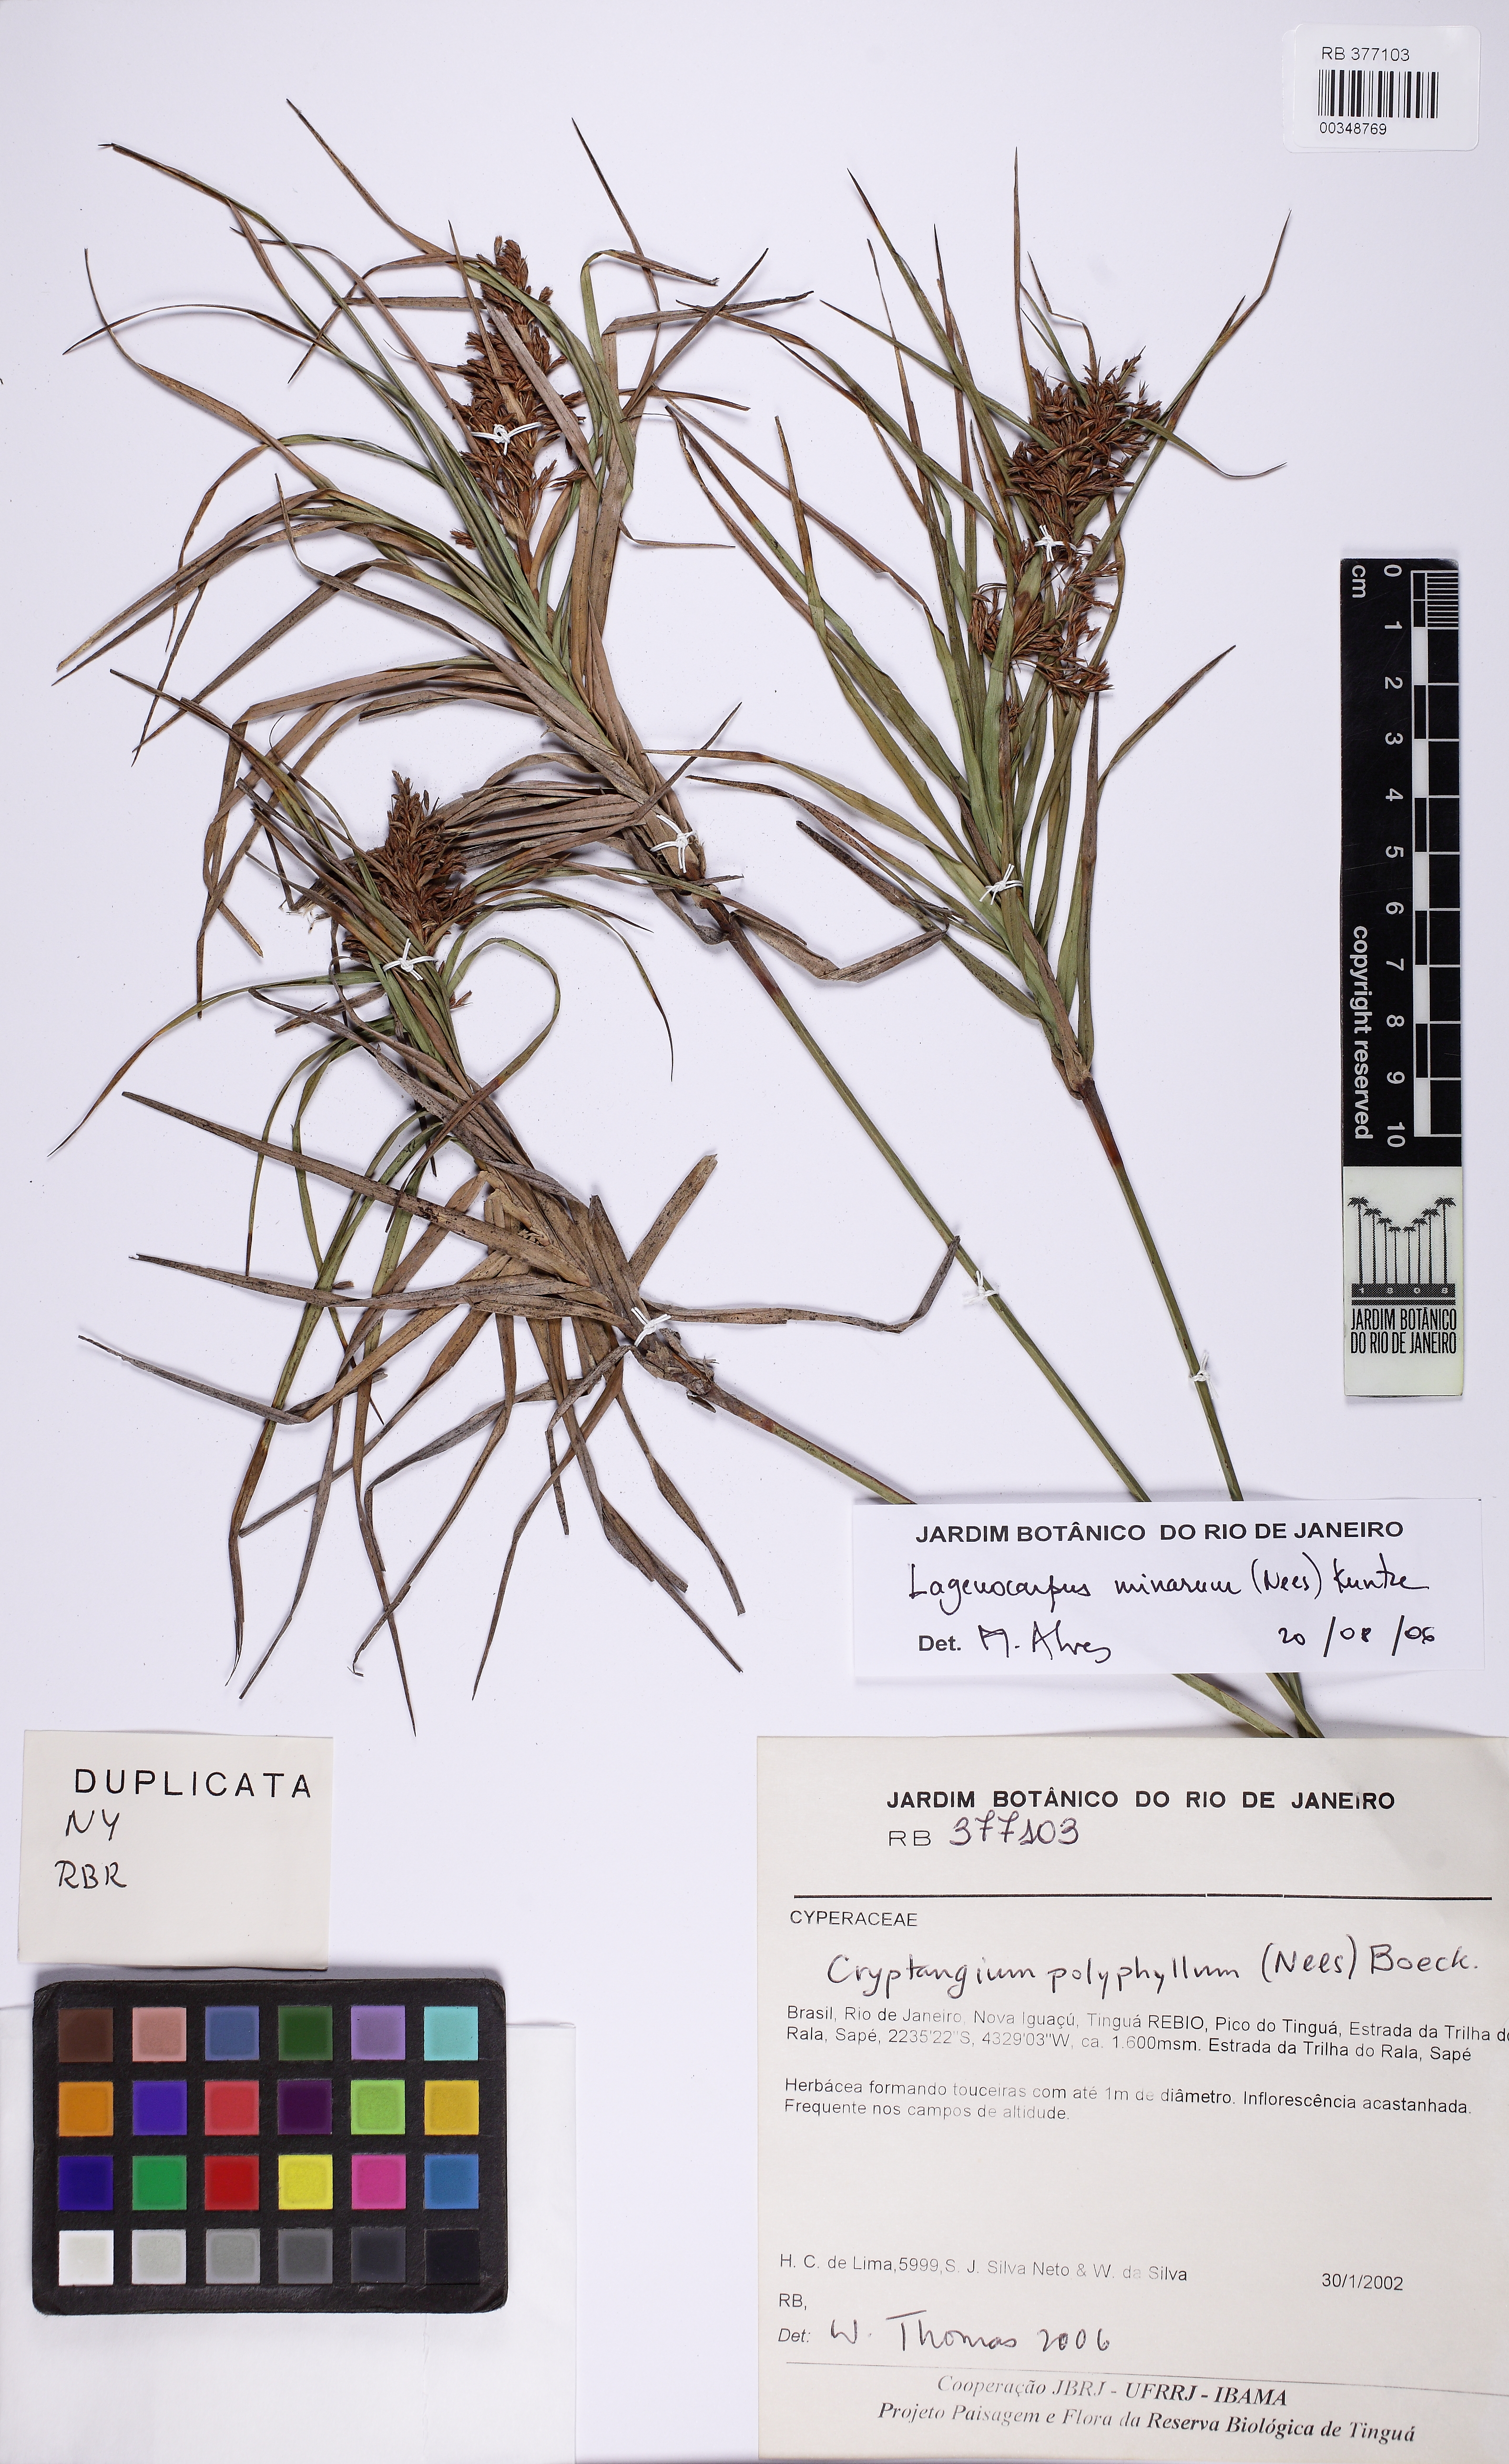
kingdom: Plantae
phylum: Tracheophyta
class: Liliopsida
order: Poales
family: Cyperaceae
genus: Krenakia
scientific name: Krenakia minarum
